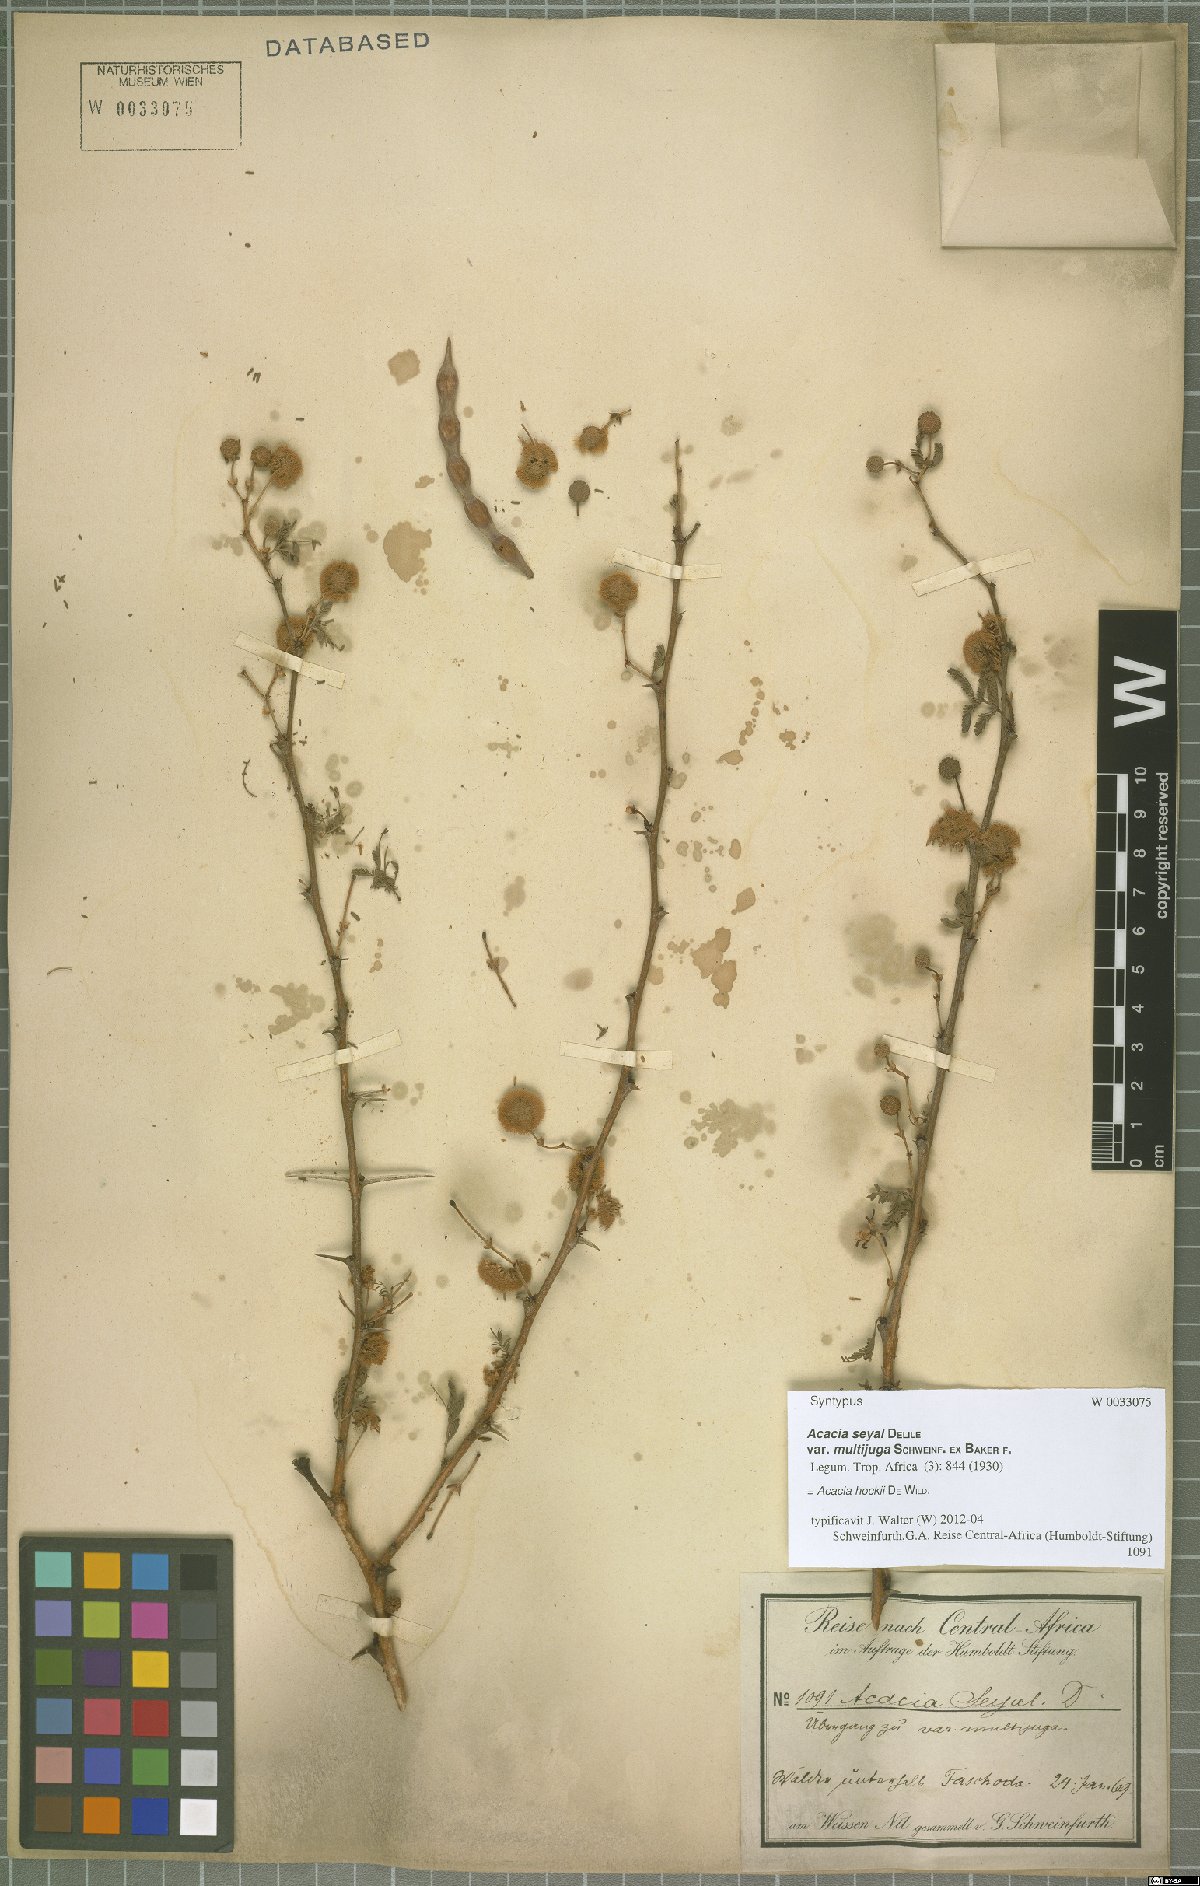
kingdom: Plantae
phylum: Tracheophyta
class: Magnoliopsida
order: Fabales
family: Fabaceae
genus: Vachellia
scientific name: Vachellia hockii
